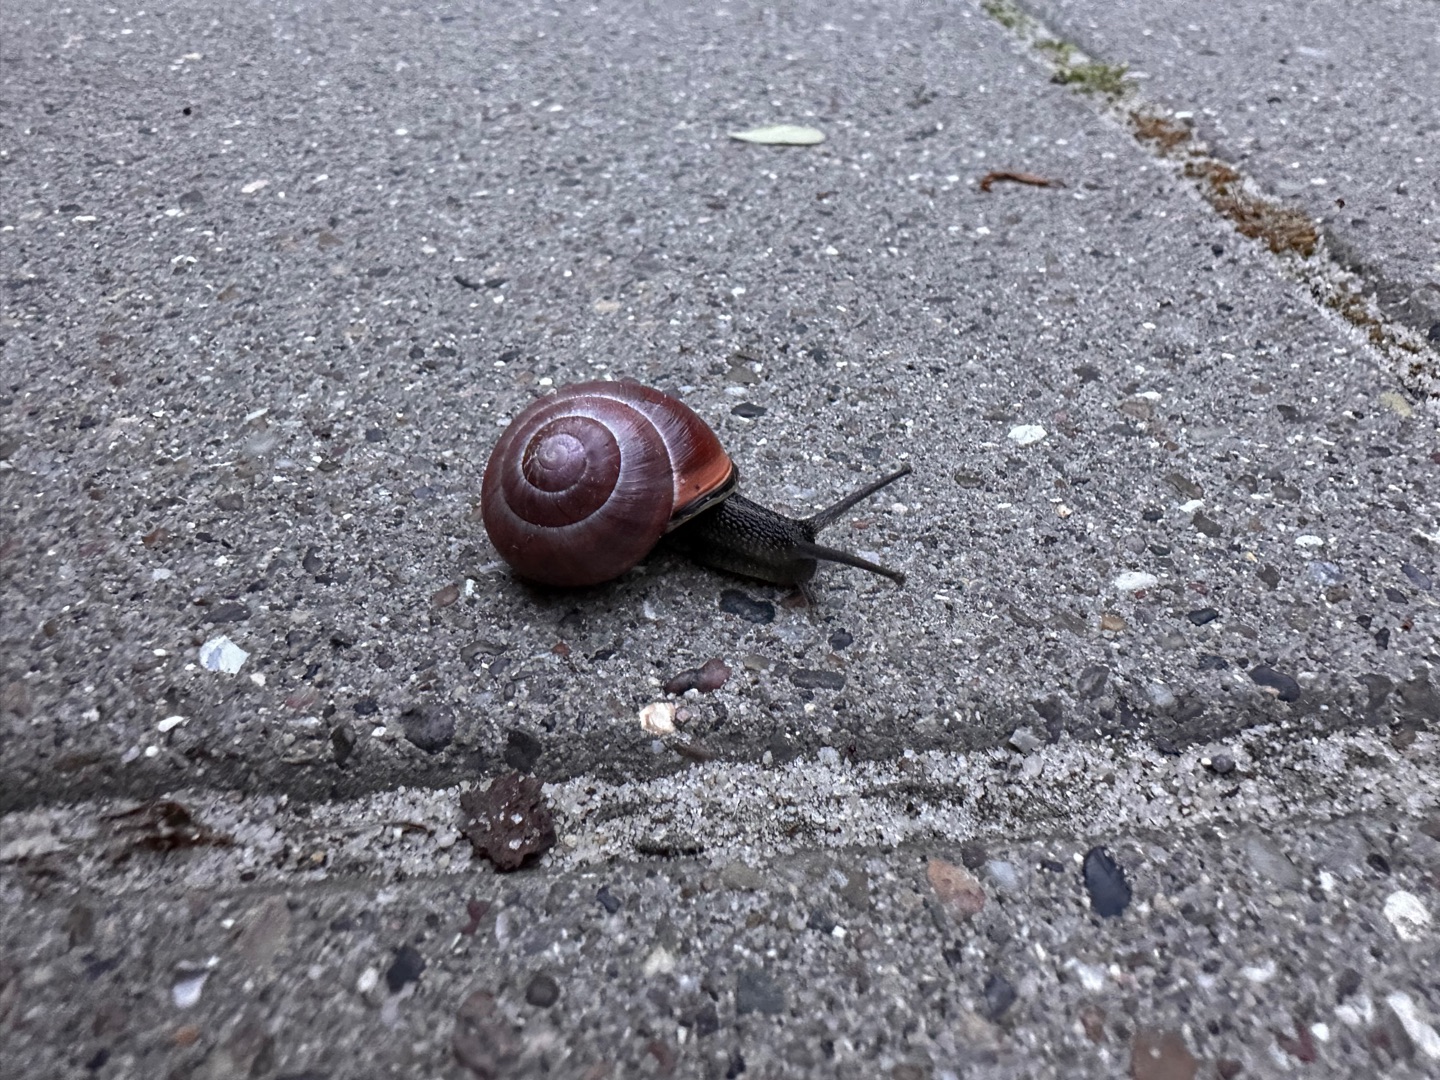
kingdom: Animalia
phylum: Mollusca
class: Gastropoda
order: Stylommatophora
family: Helicidae
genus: Cepaea
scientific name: Cepaea nemoralis
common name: Lundsnegl
